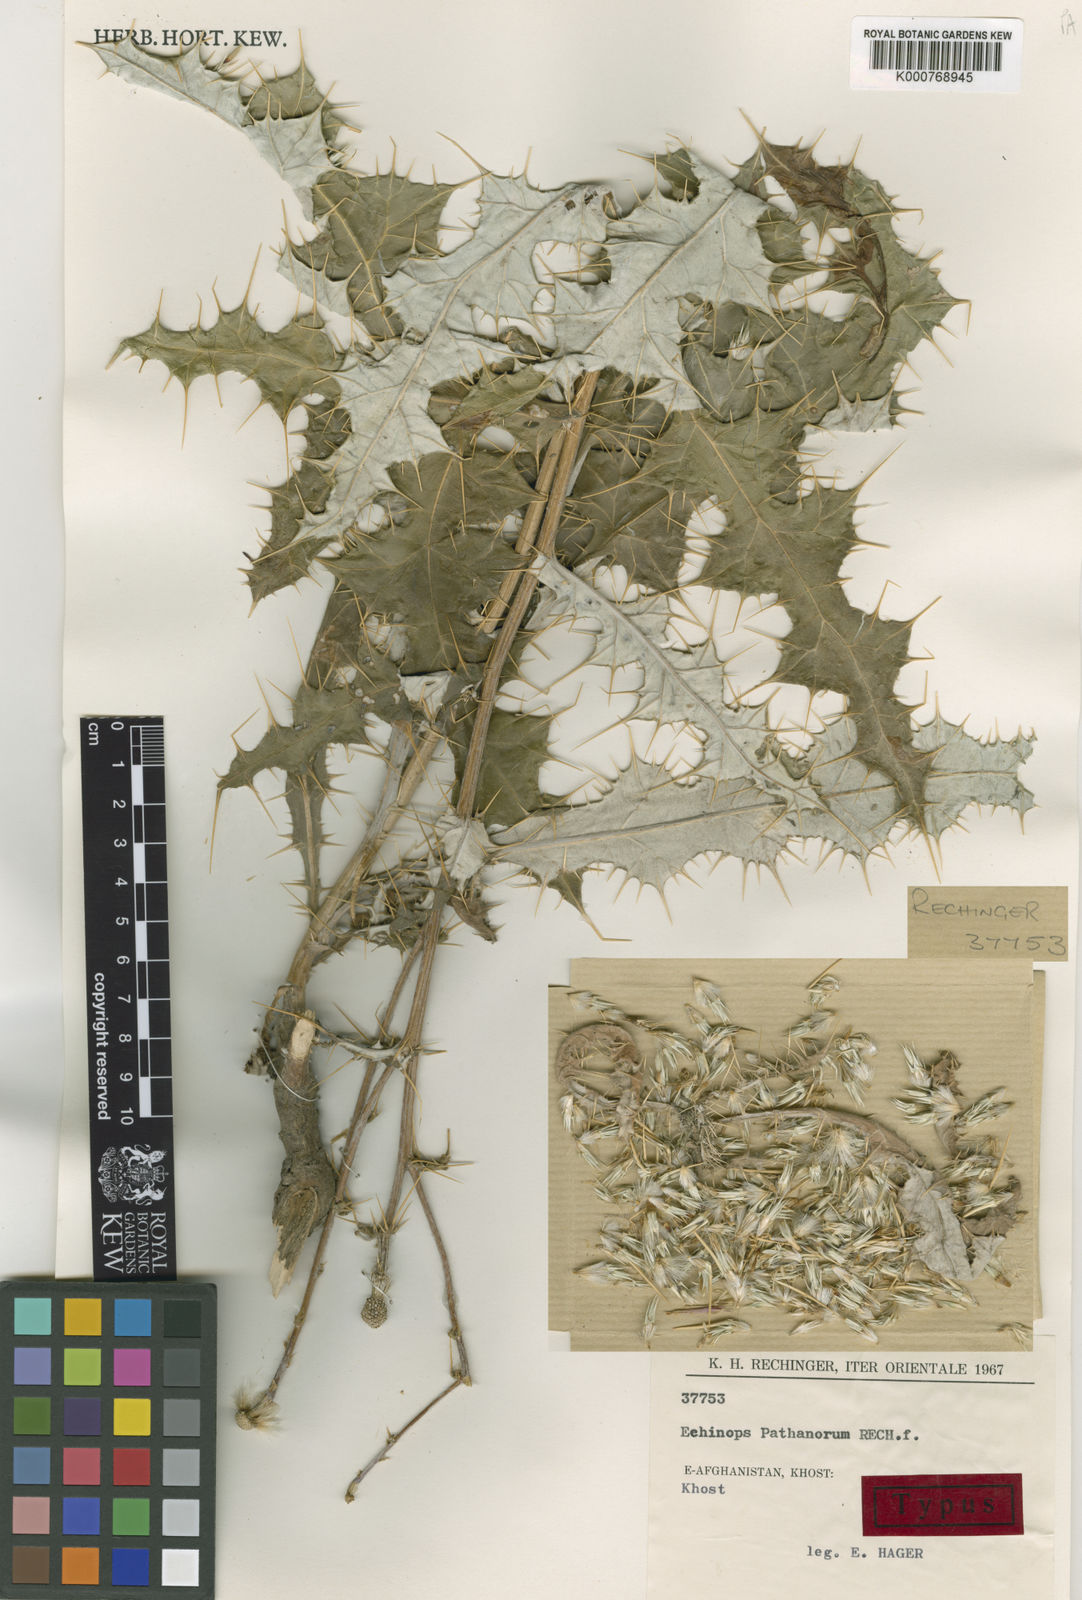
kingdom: Plantae
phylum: Tracheophyta
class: Magnoliopsida
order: Asterales
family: Asteraceae
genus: Echinops
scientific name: Echinops pathanorum
